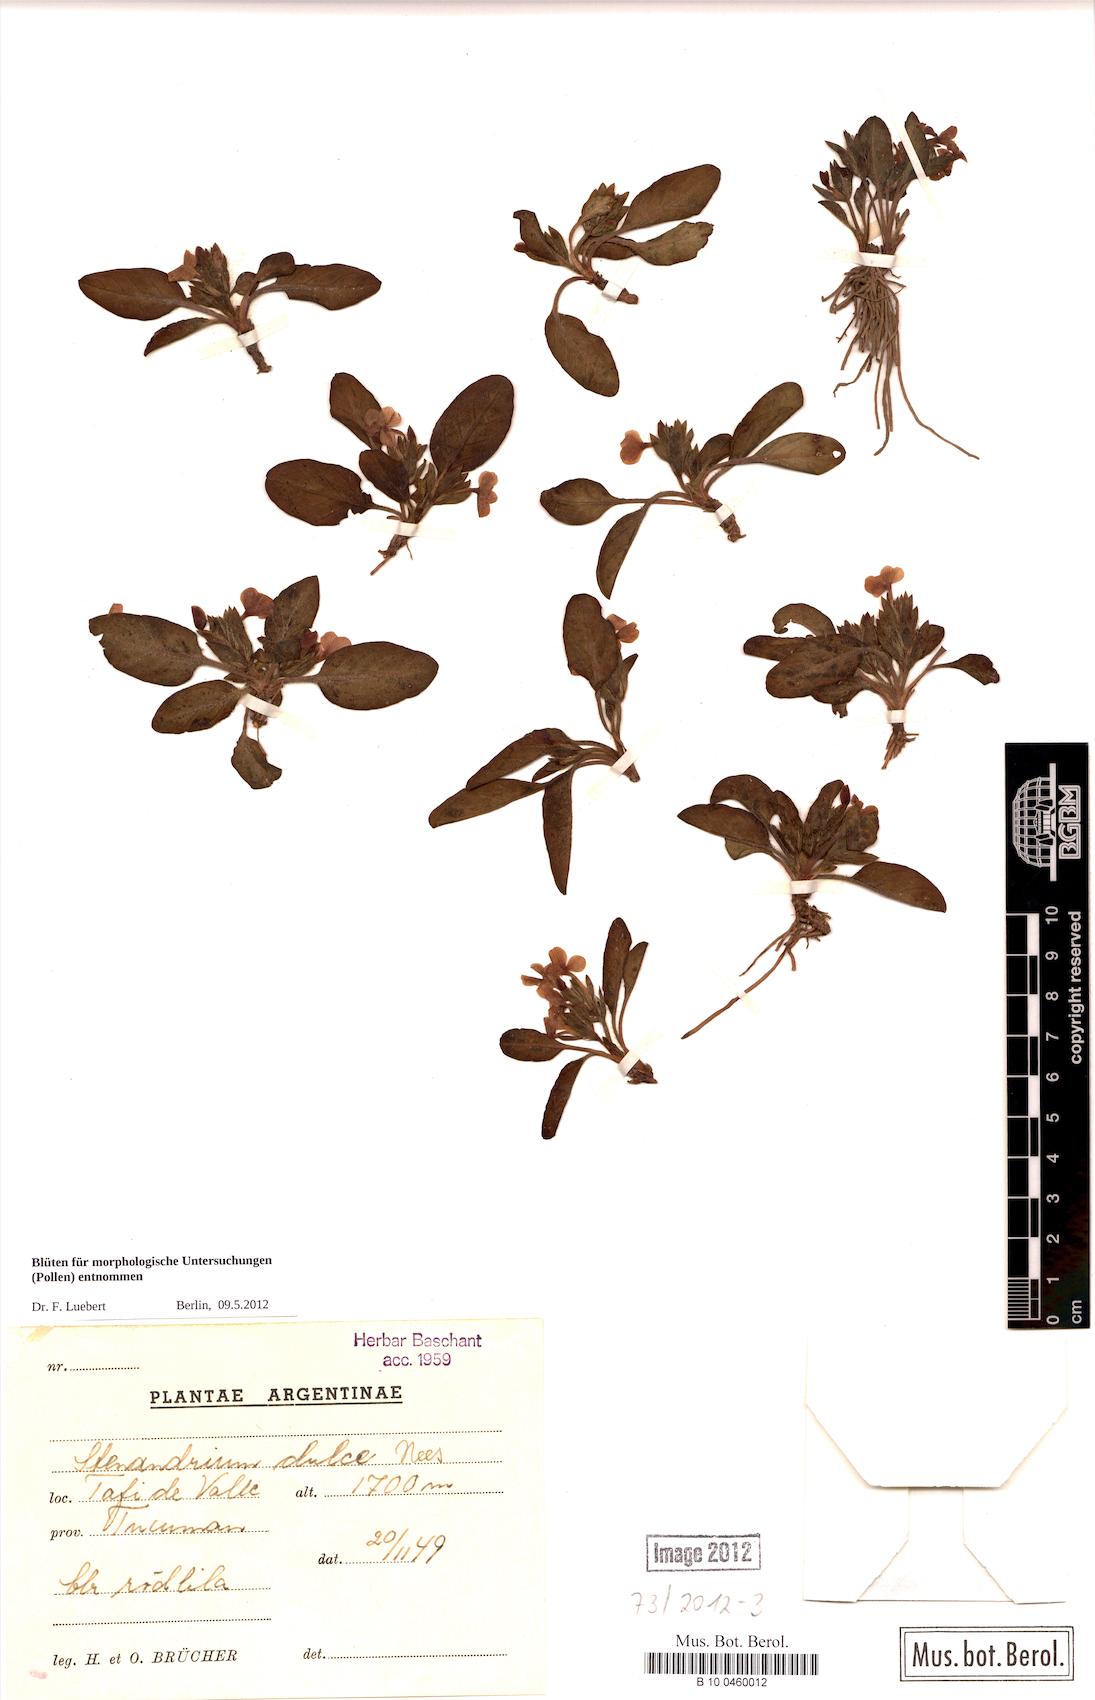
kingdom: Plantae
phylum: Tracheophyta
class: Magnoliopsida
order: Lamiales
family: Acanthaceae
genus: Stenandrium
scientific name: Stenandrium dulce
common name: Pinklet
